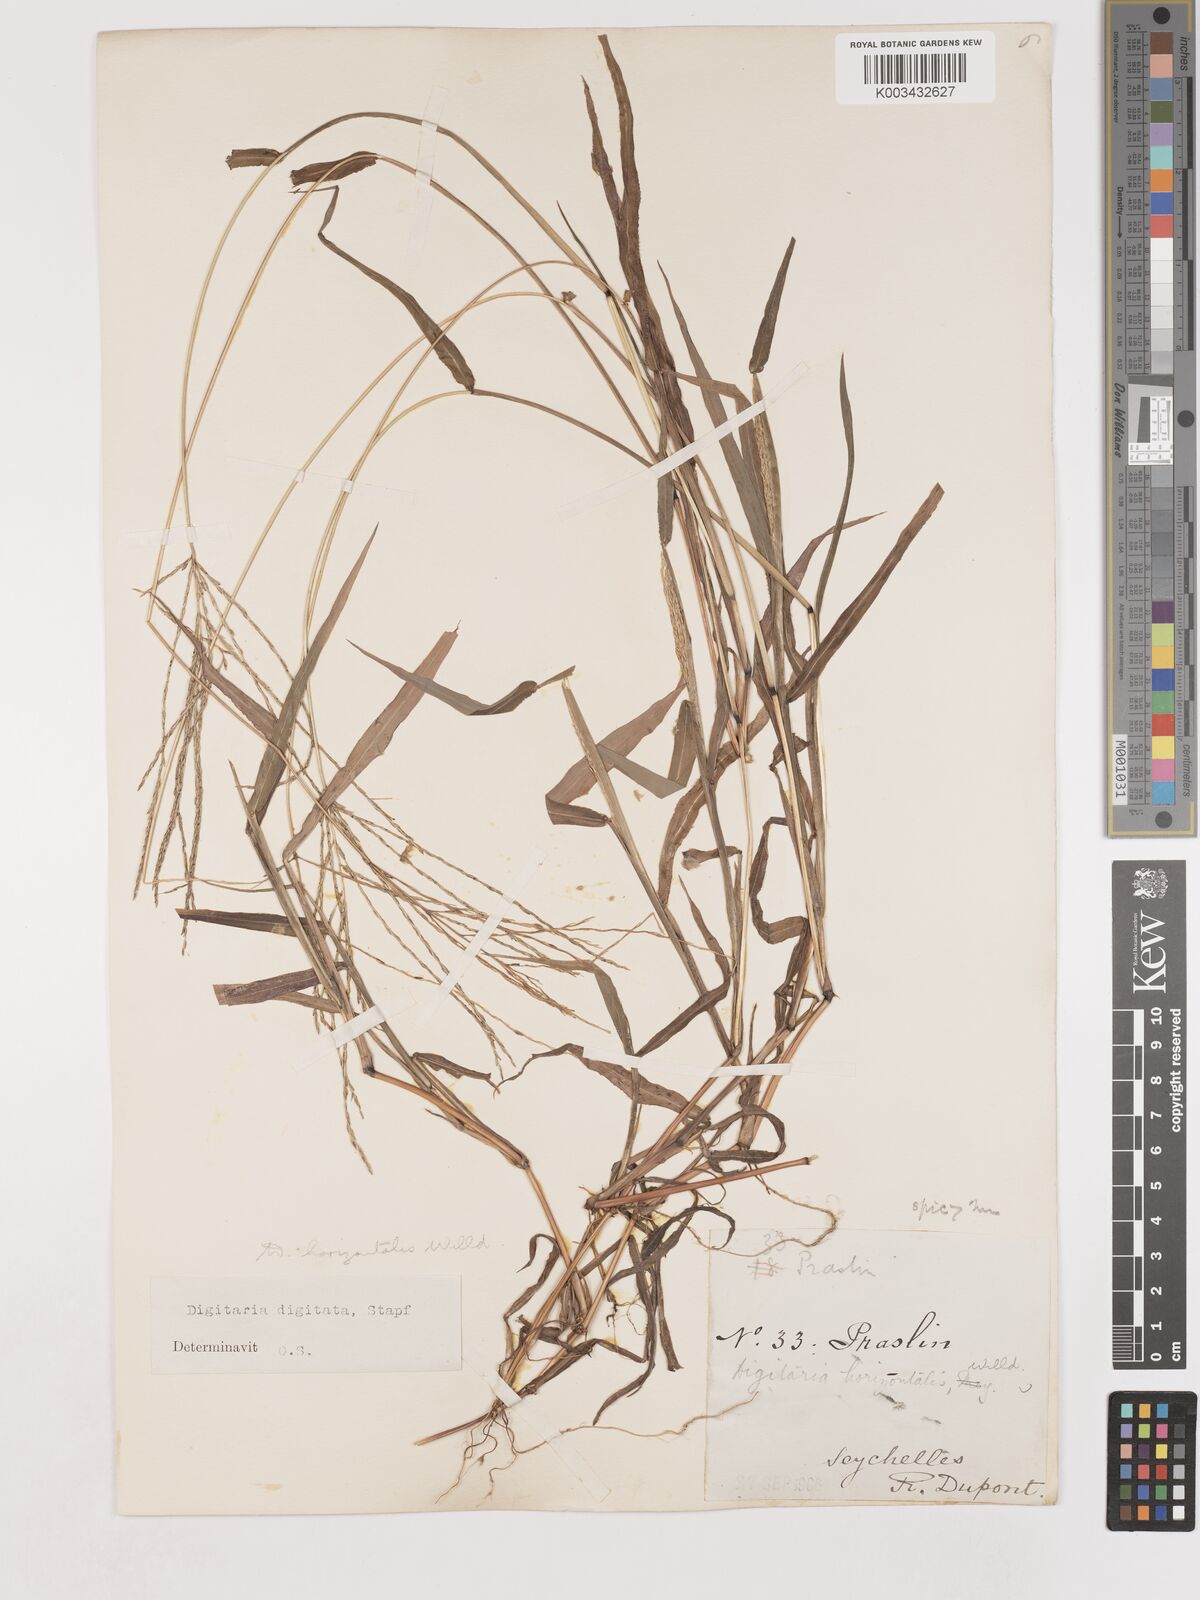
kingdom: Plantae
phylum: Tracheophyta
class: Liliopsida
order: Poales
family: Poaceae
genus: Digitaria
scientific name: Digitaria horizontalis
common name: Jamaican crabgrass
